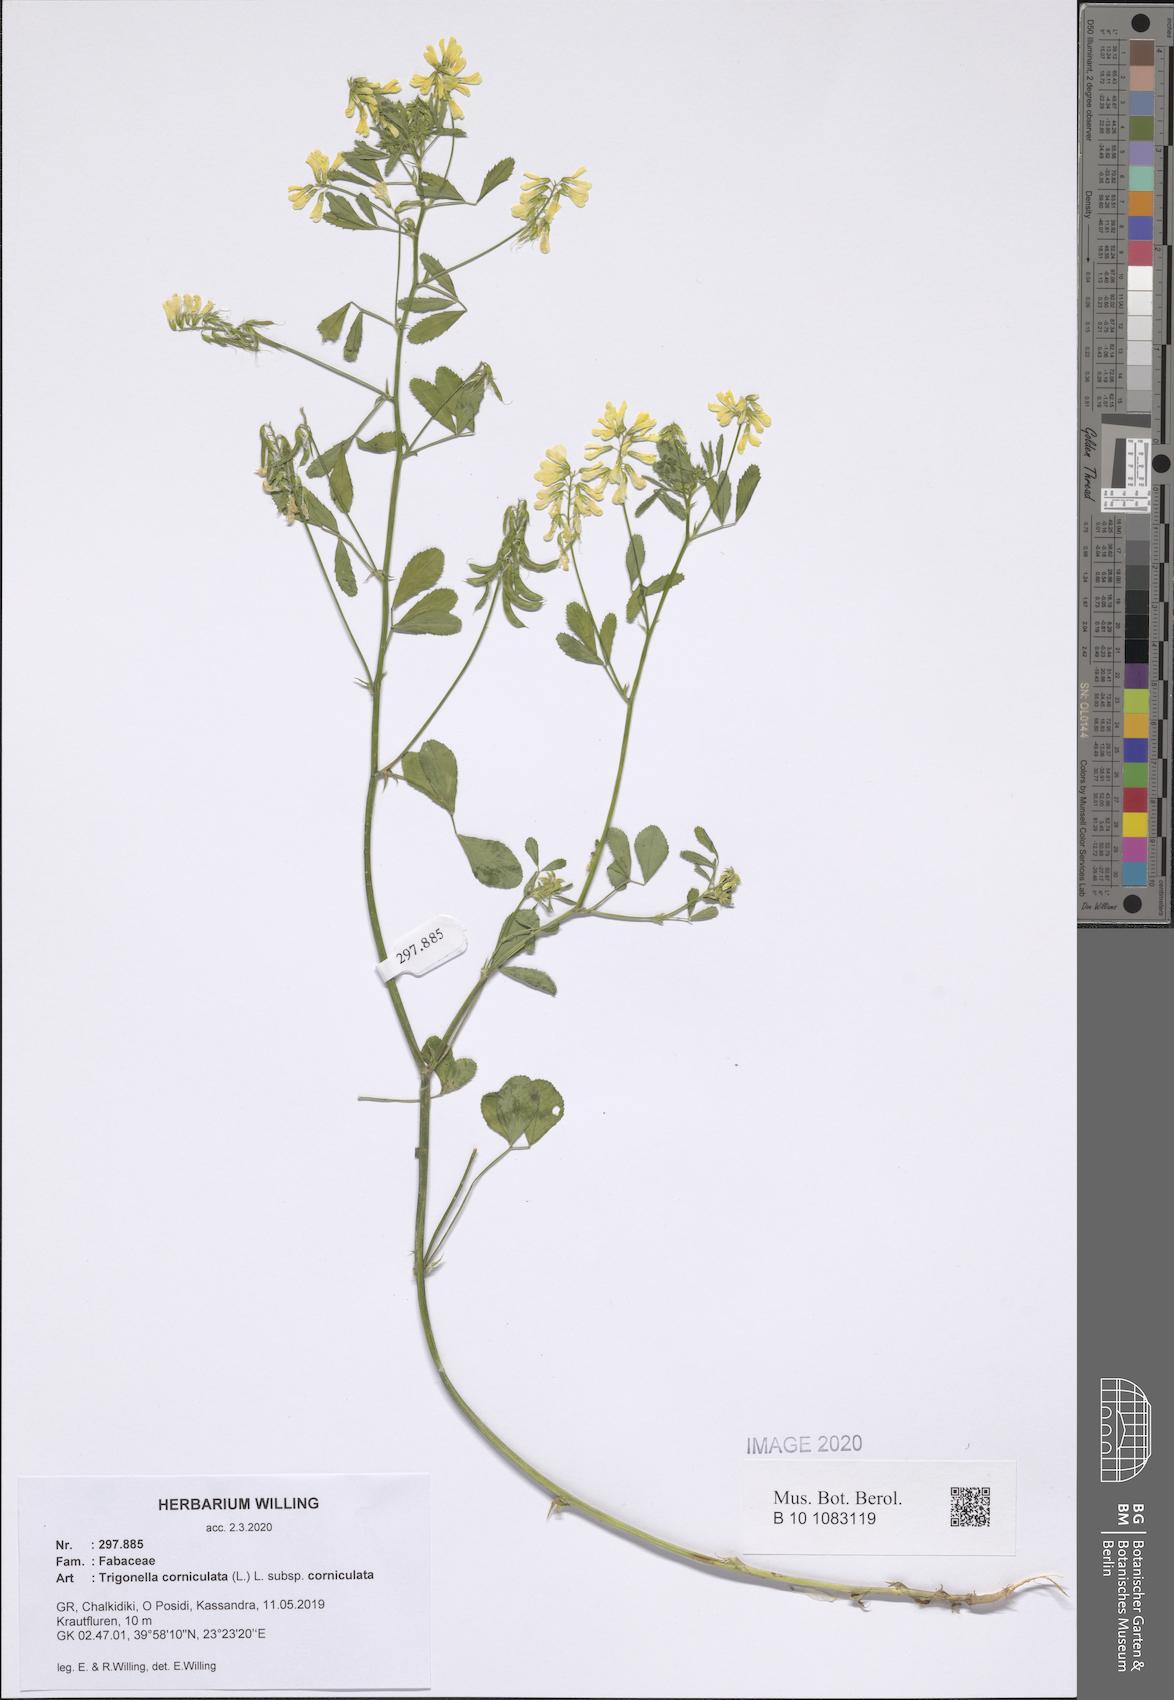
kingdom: Plantae
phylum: Tracheophyta
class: Magnoliopsida
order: Fabales
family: Fabaceae
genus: Trigonella
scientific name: Trigonella corniculata
